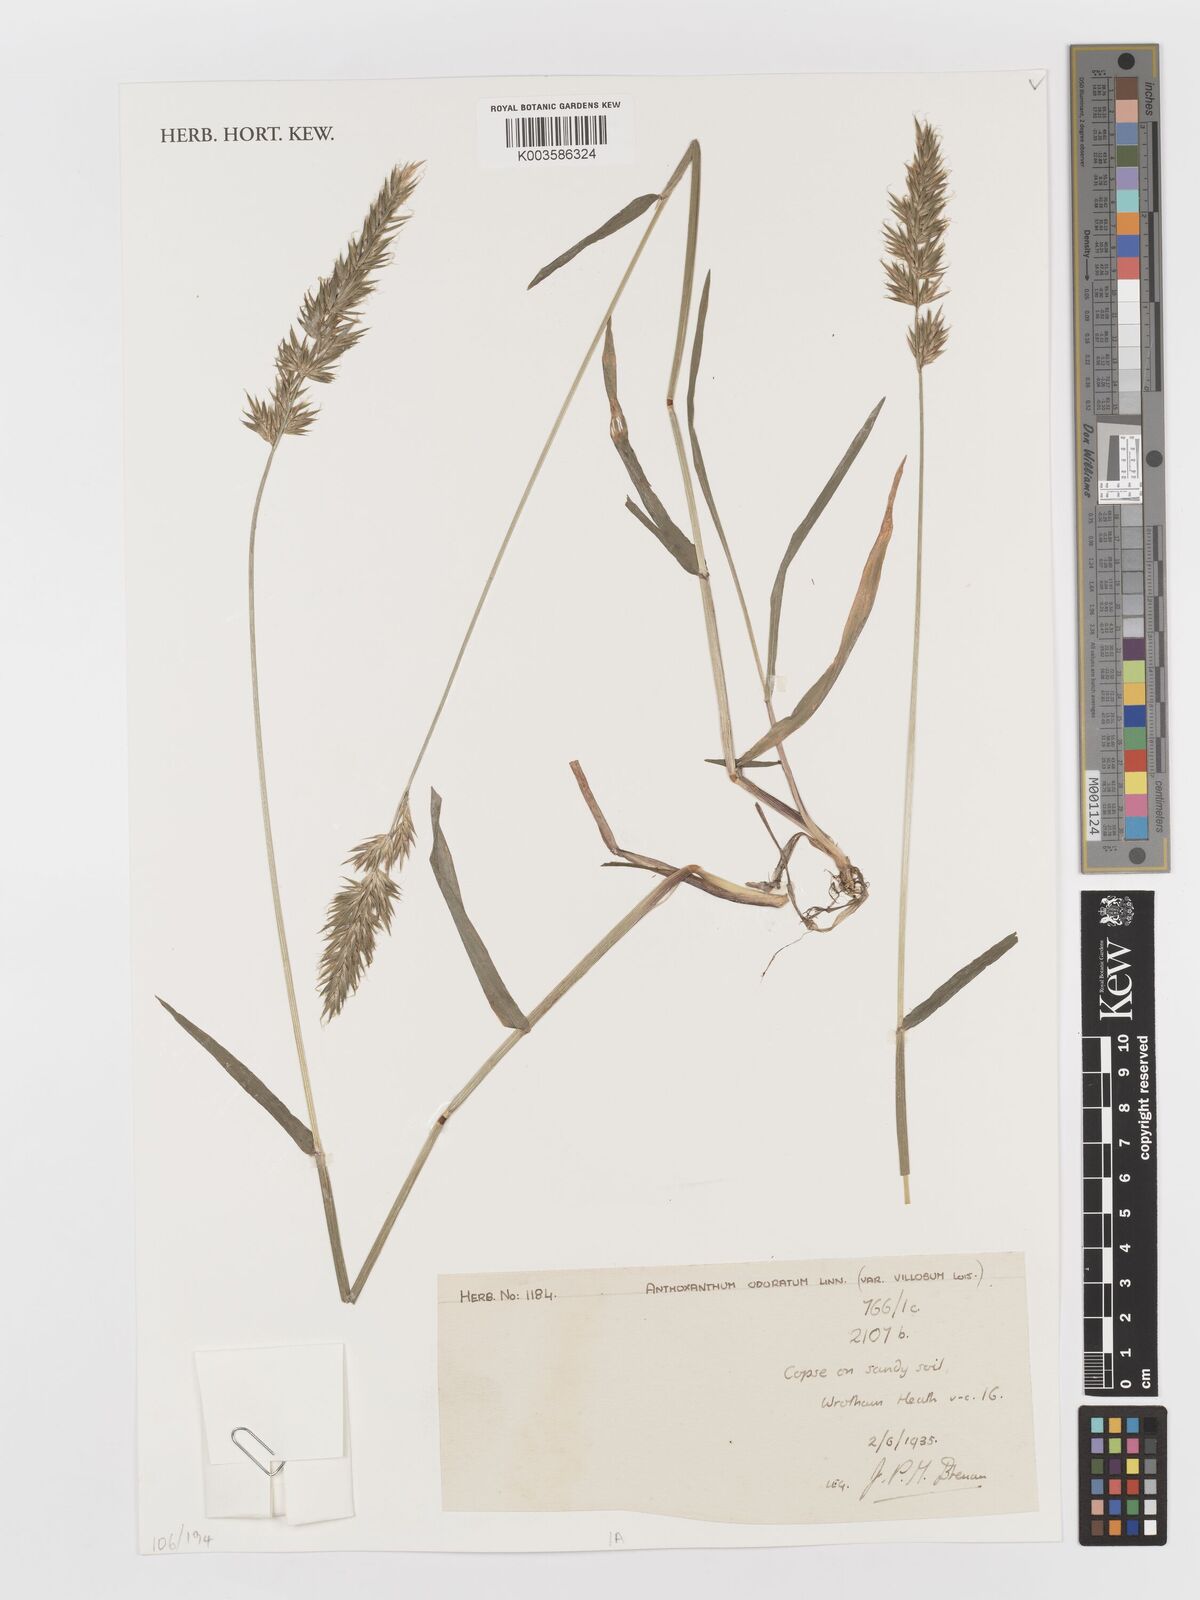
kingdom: Plantae
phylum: Tracheophyta
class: Liliopsida
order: Poales
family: Poaceae
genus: Anthoxanthum
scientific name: Anthoxanthum odoratum
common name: Sweet vernalgrass
